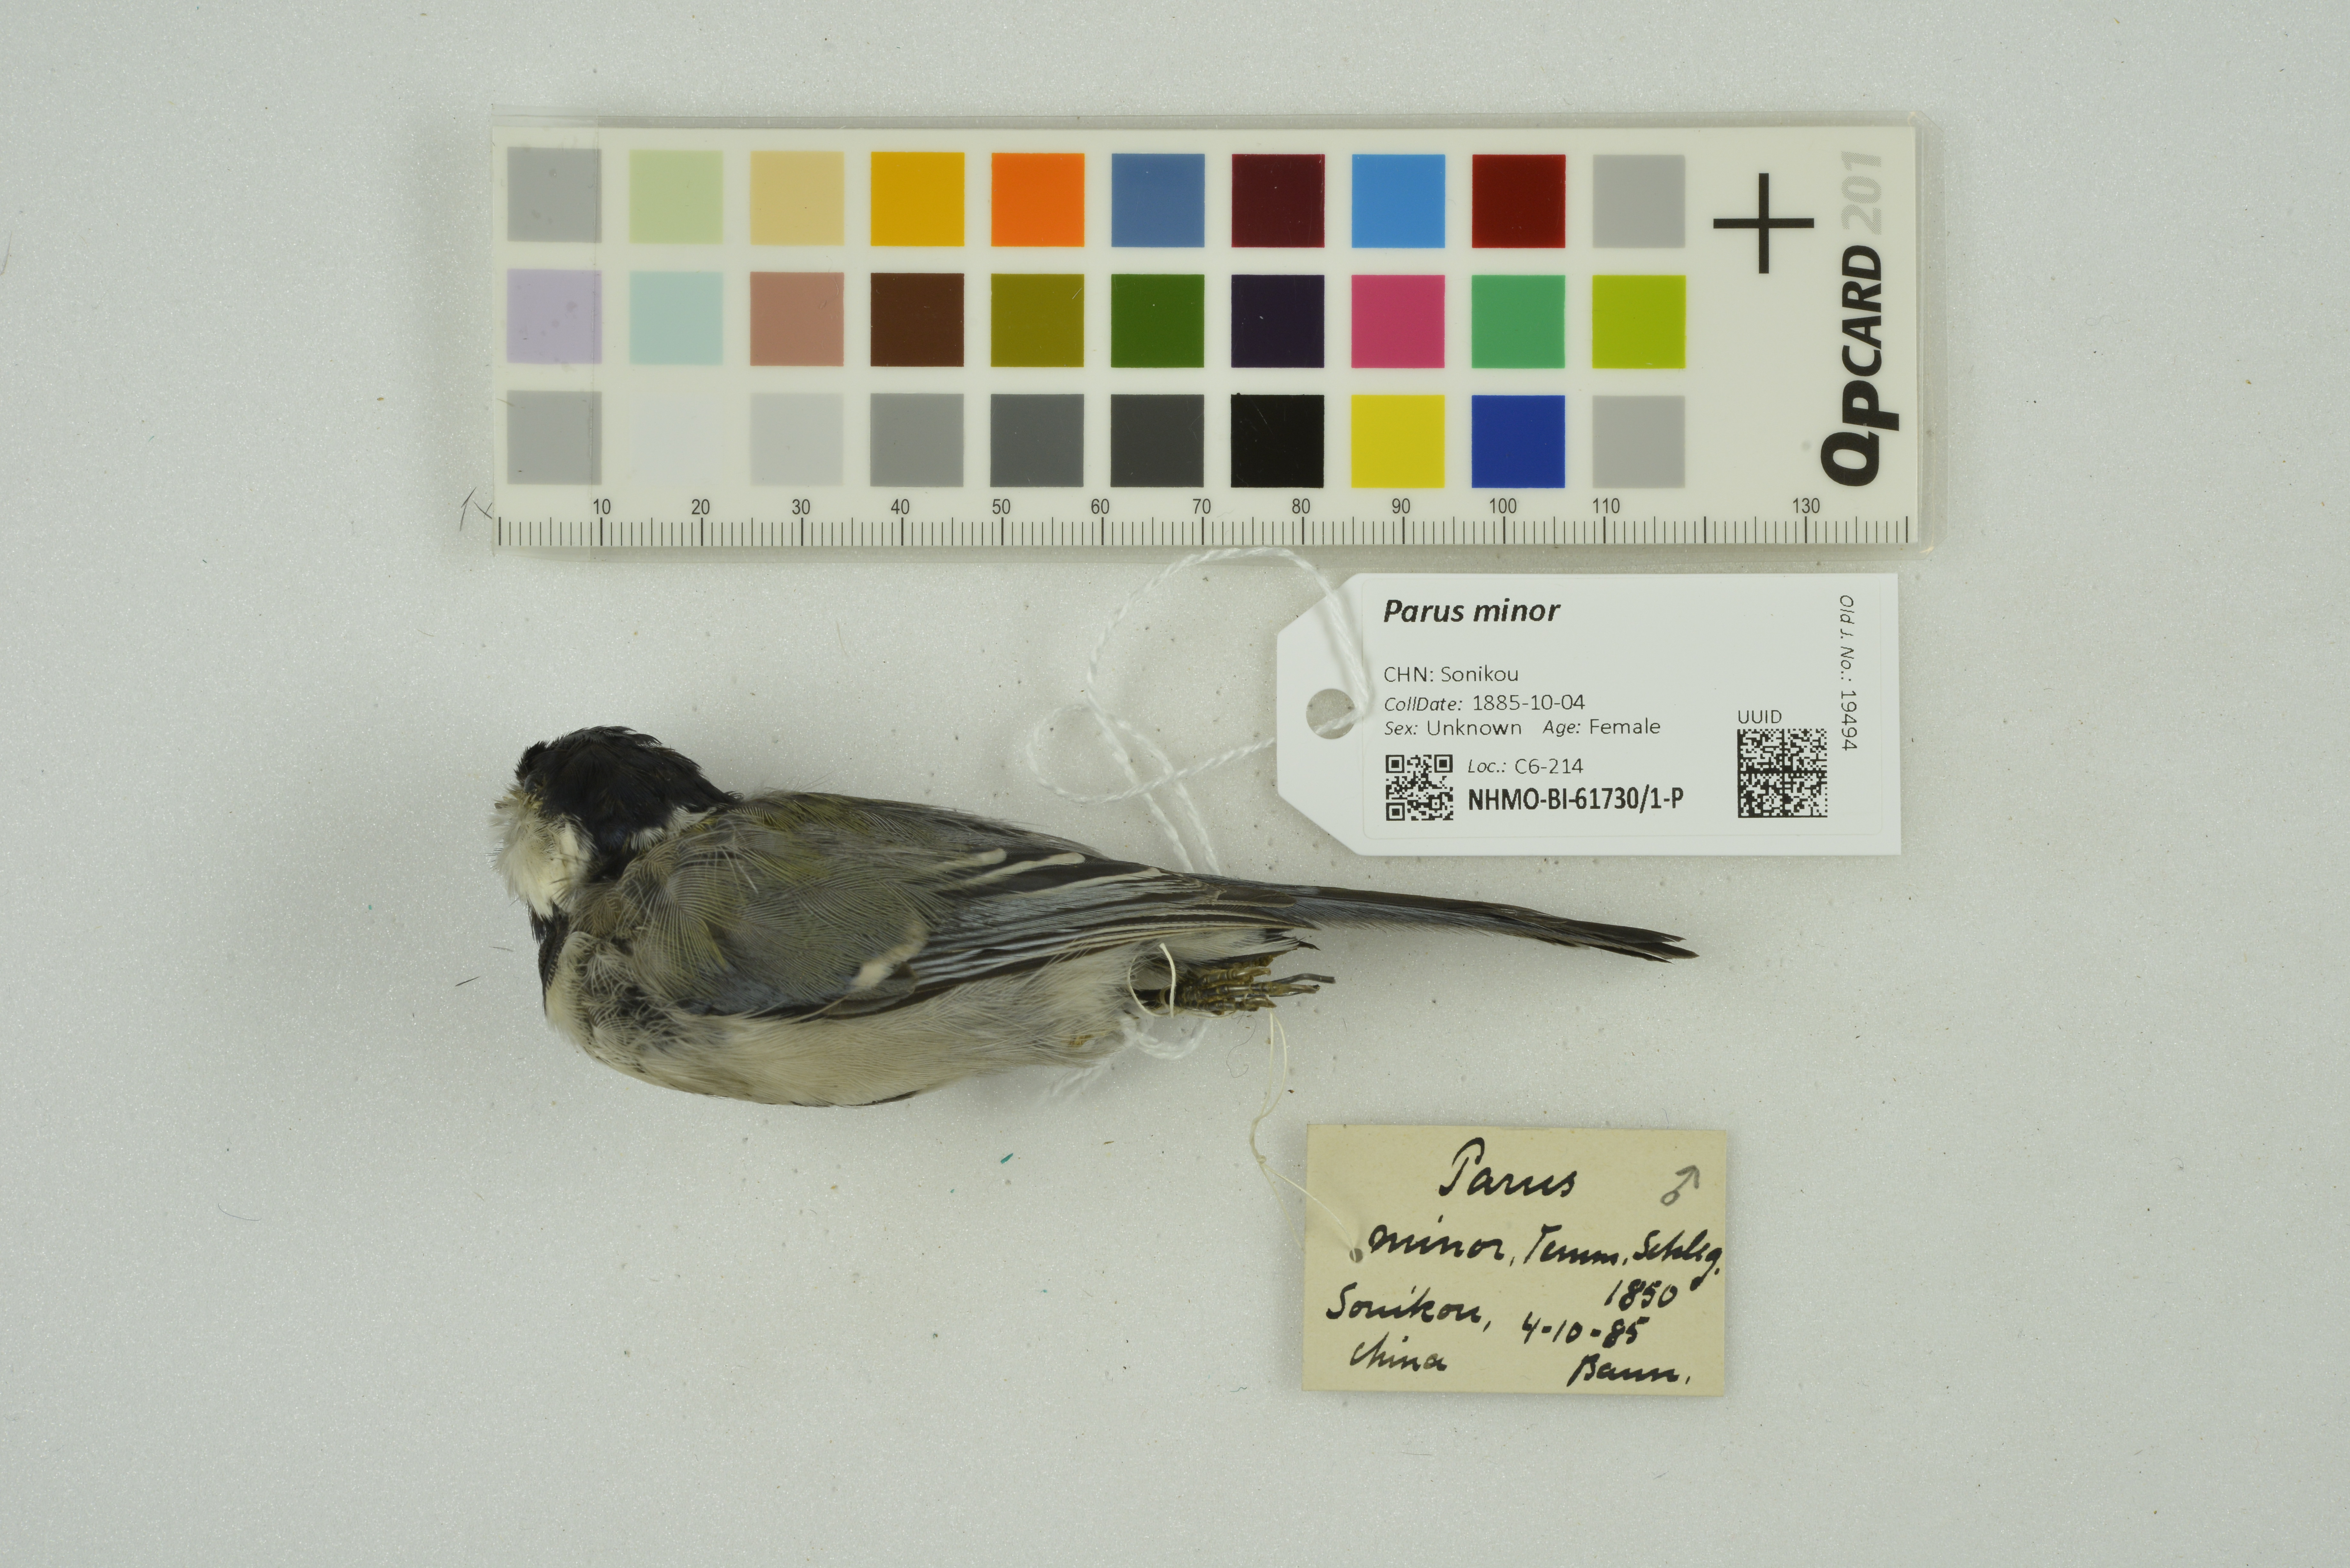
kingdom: Animalia
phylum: Chordata
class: Aves
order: Passeriformes
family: Paridae
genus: Parus
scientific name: Parus minor
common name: Japanese tit
